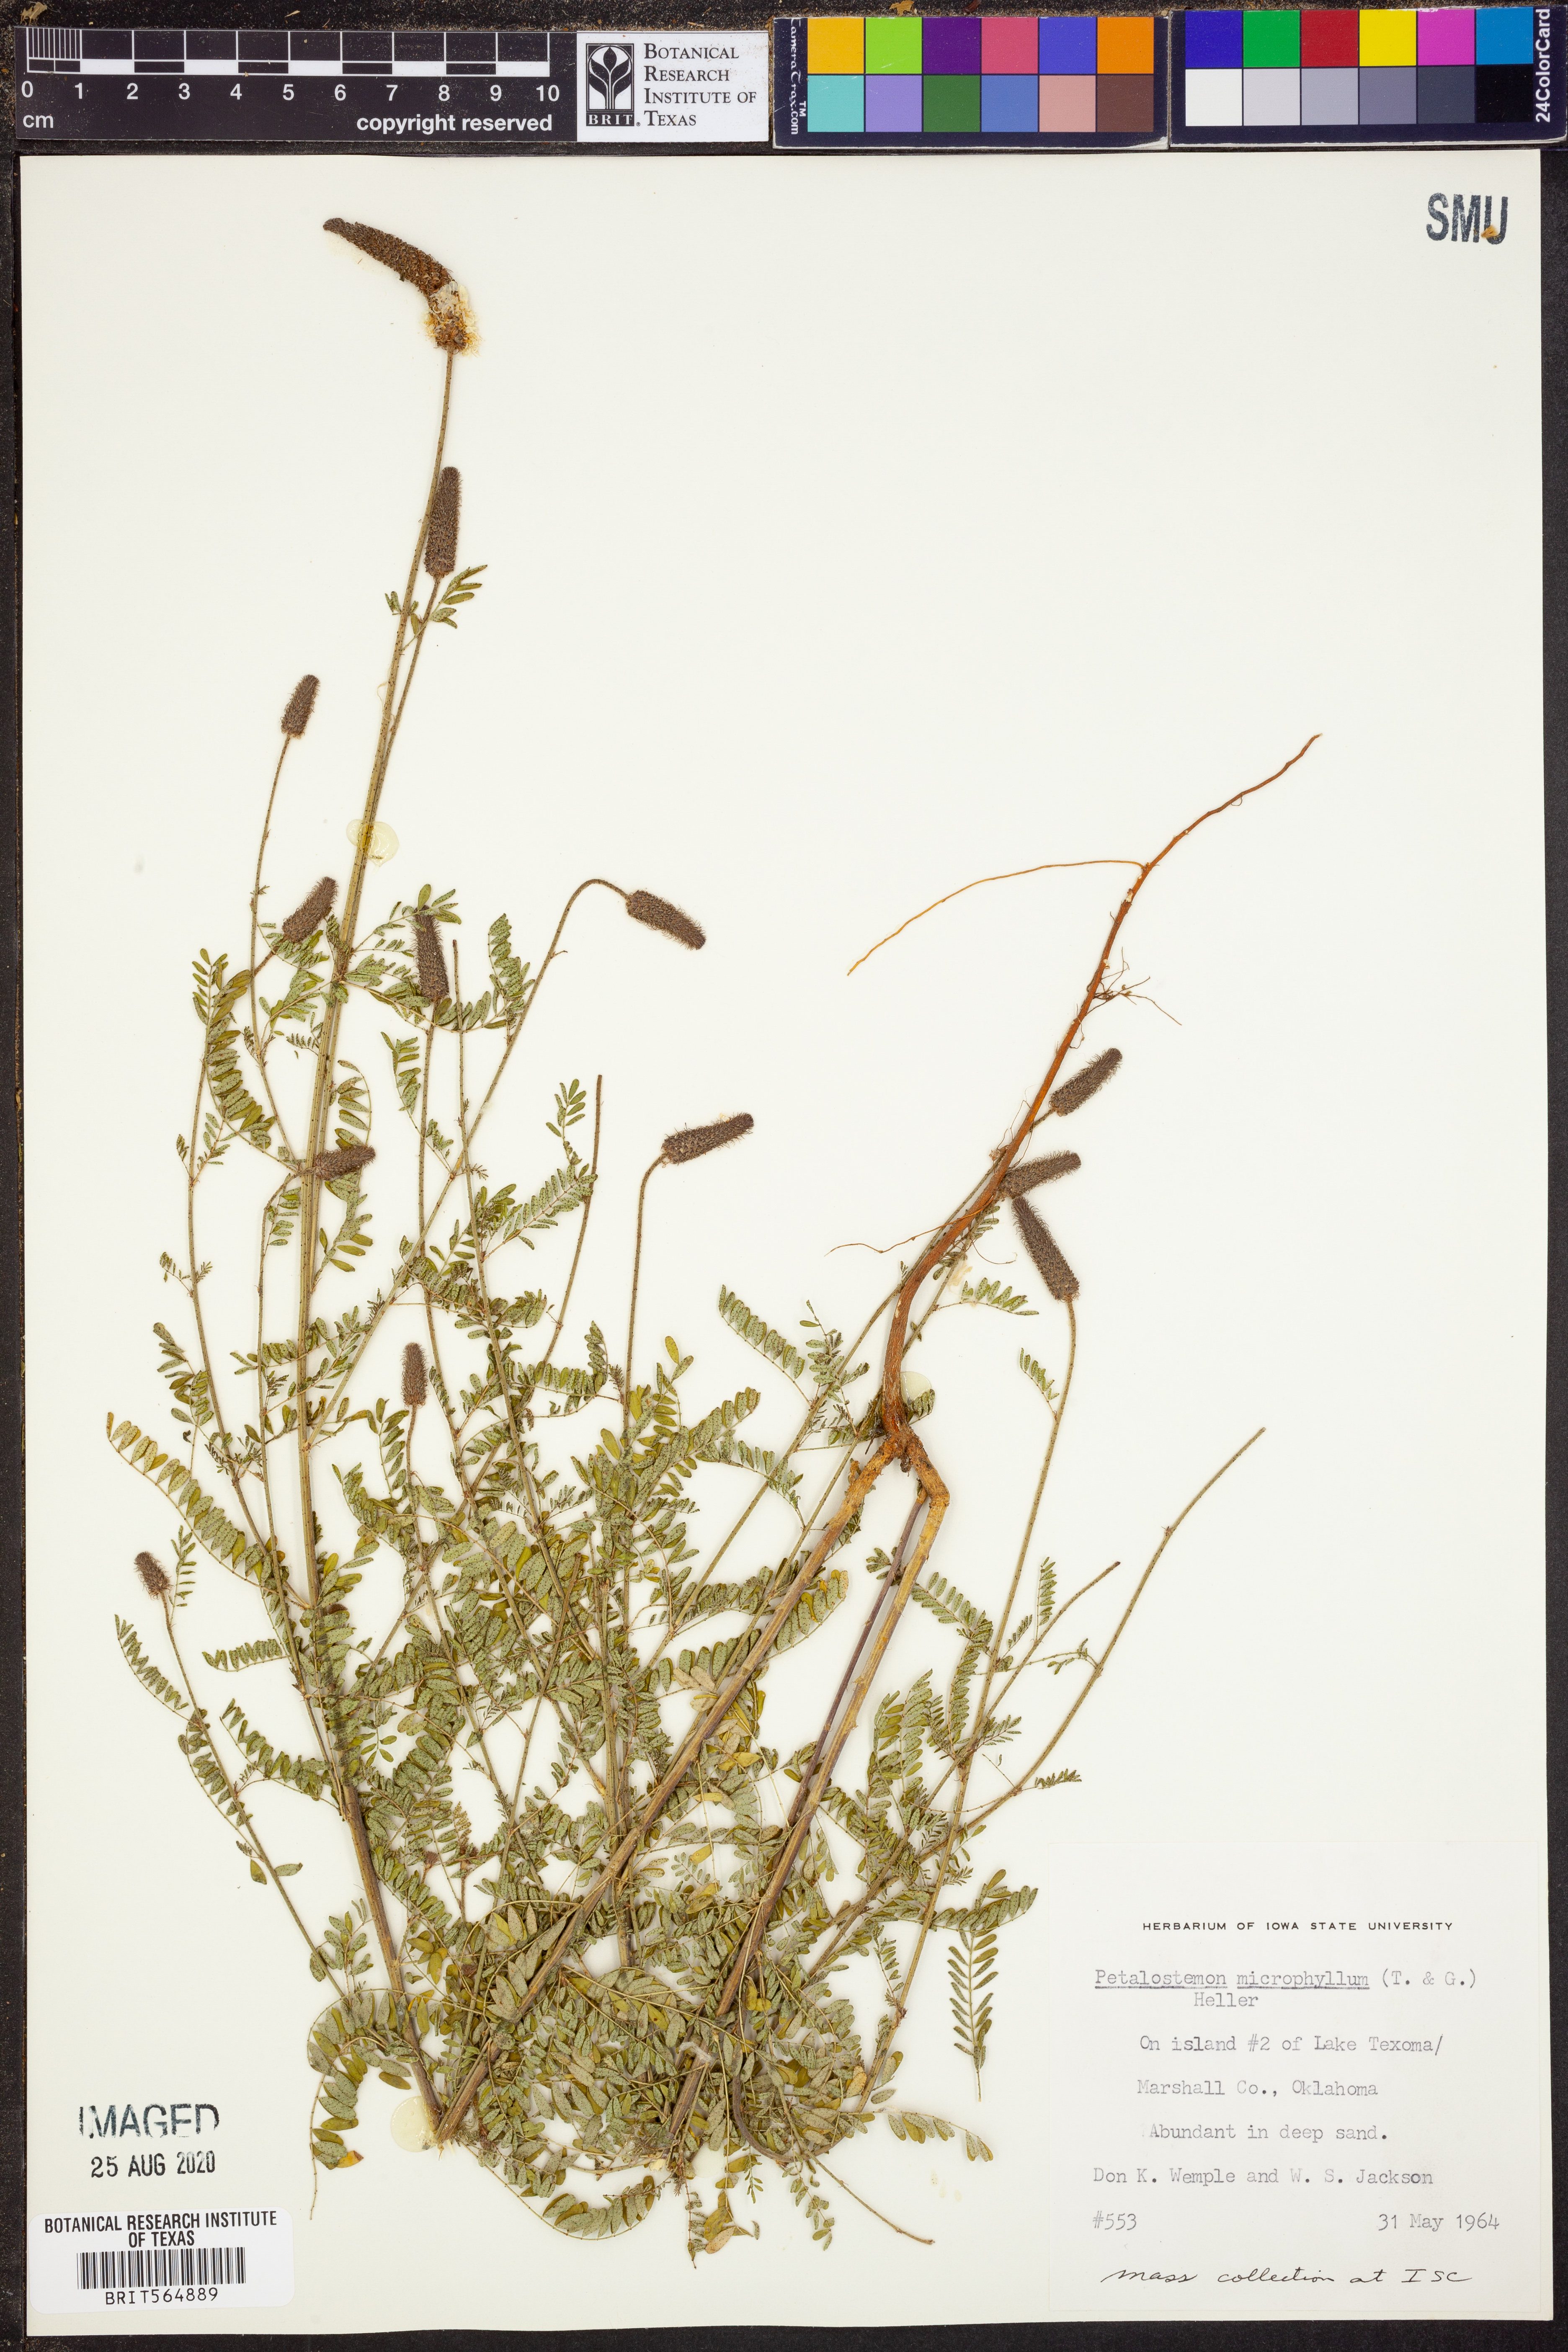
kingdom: Plantae
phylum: Tracheophyta
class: Magnoliopsida
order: Fabales
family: Fabaceae
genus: Dalea
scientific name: Dalea drummondiana
